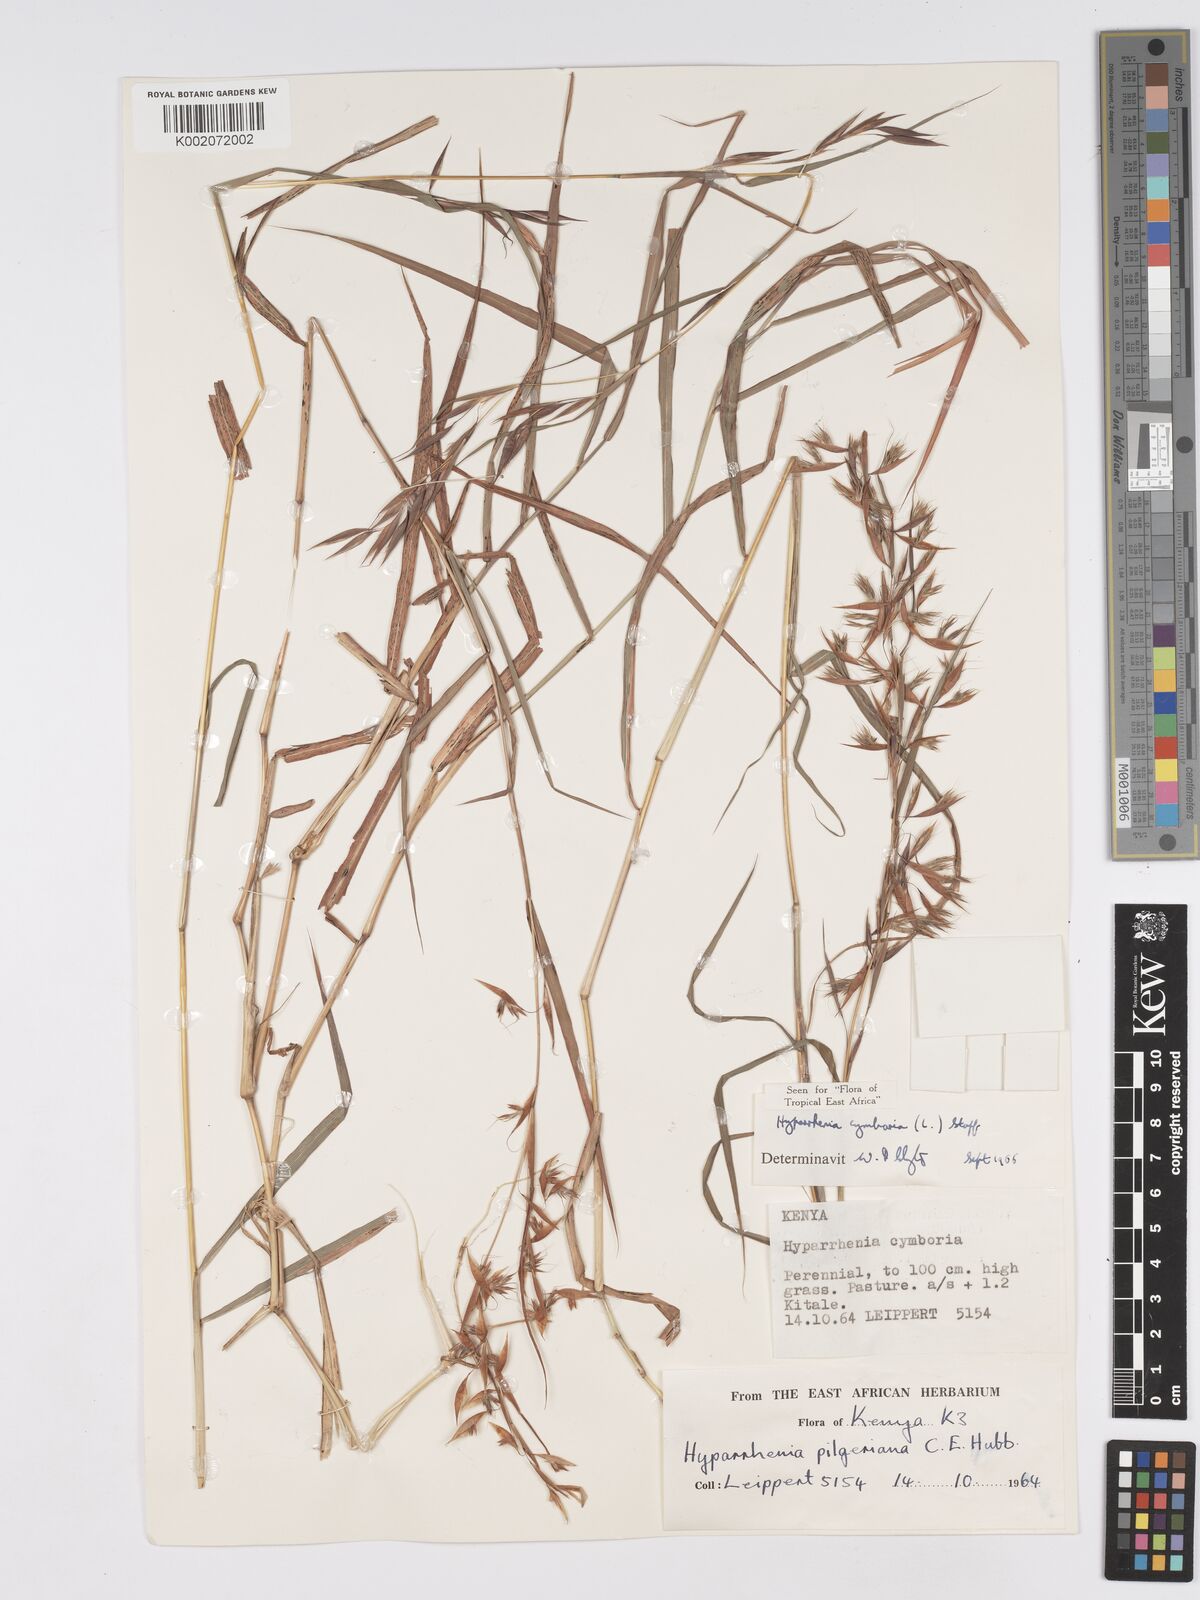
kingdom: Plantae
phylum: Tracheophyta
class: Liliopsida
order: Poales
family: Poaceae
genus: Hyparrhenia
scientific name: Hyparrhenia cymbaria
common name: Boat thatching grass
